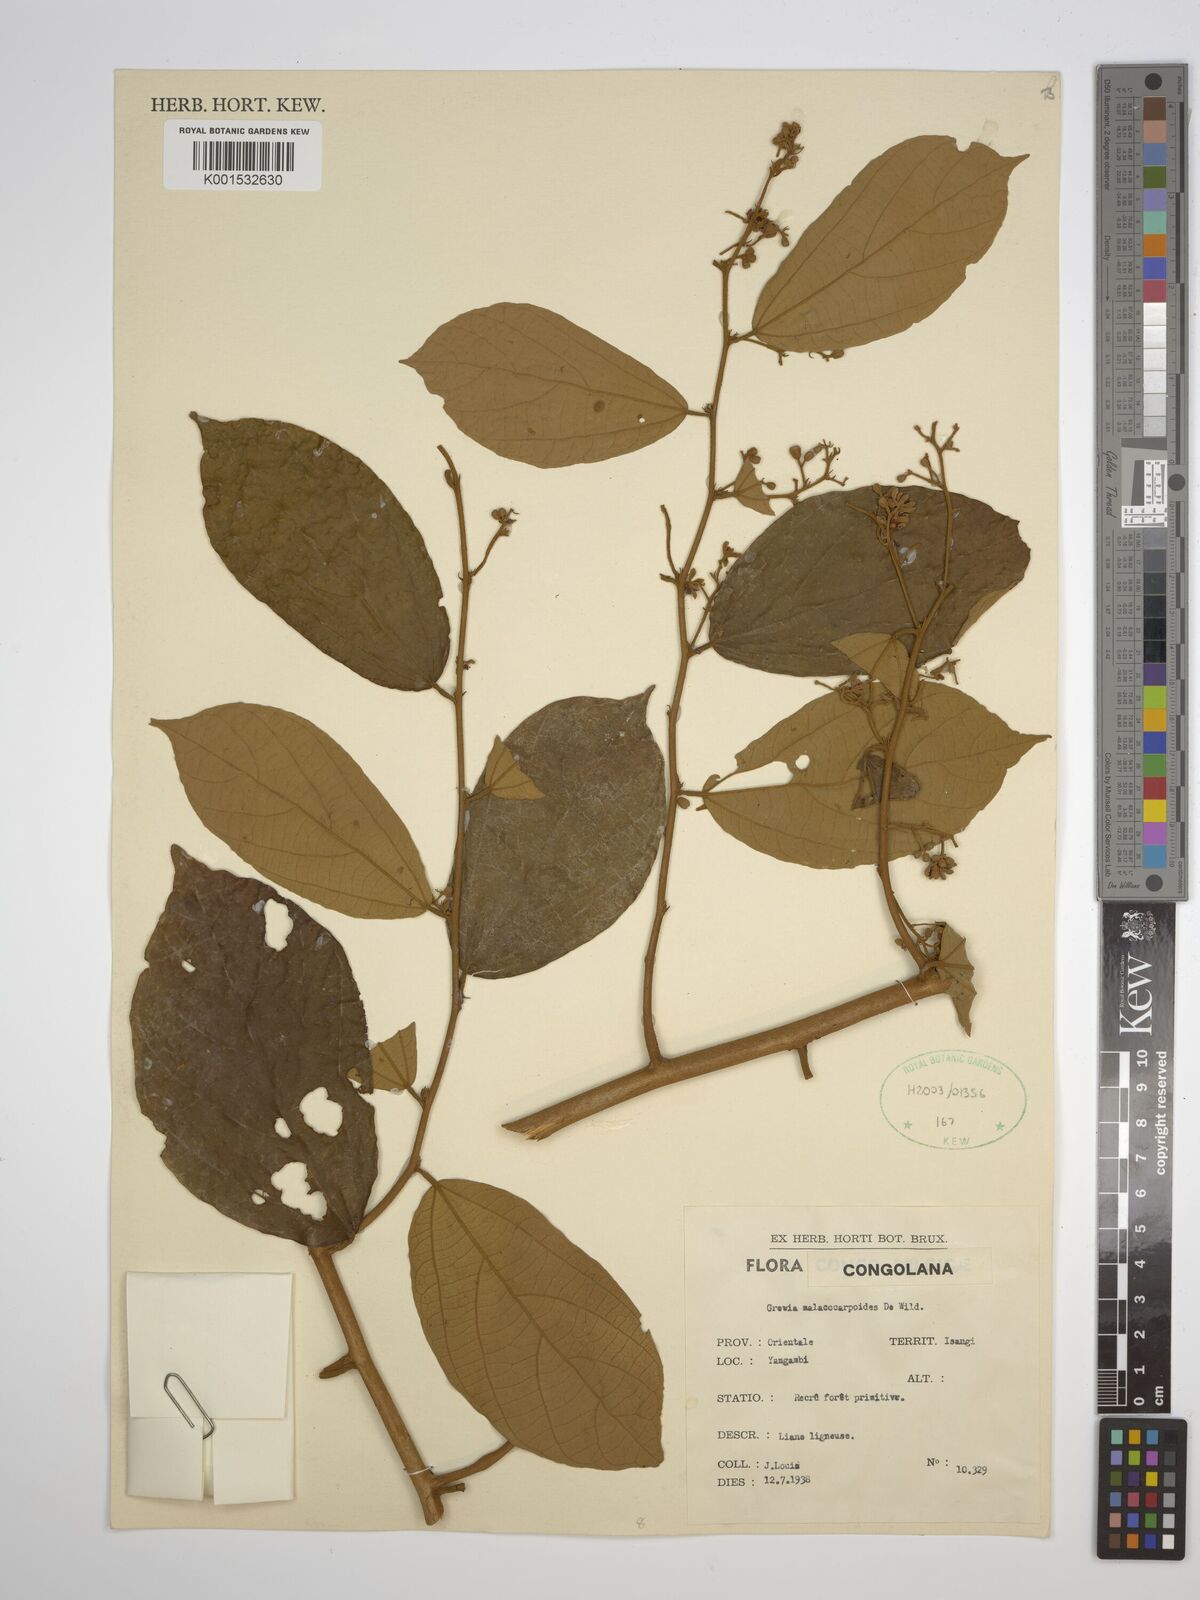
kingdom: Plantae
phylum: Tracheophyta
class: Magnoliopsida
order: Malvales
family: Malvaceae
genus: Microcos
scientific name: Microcos malacocarpa
